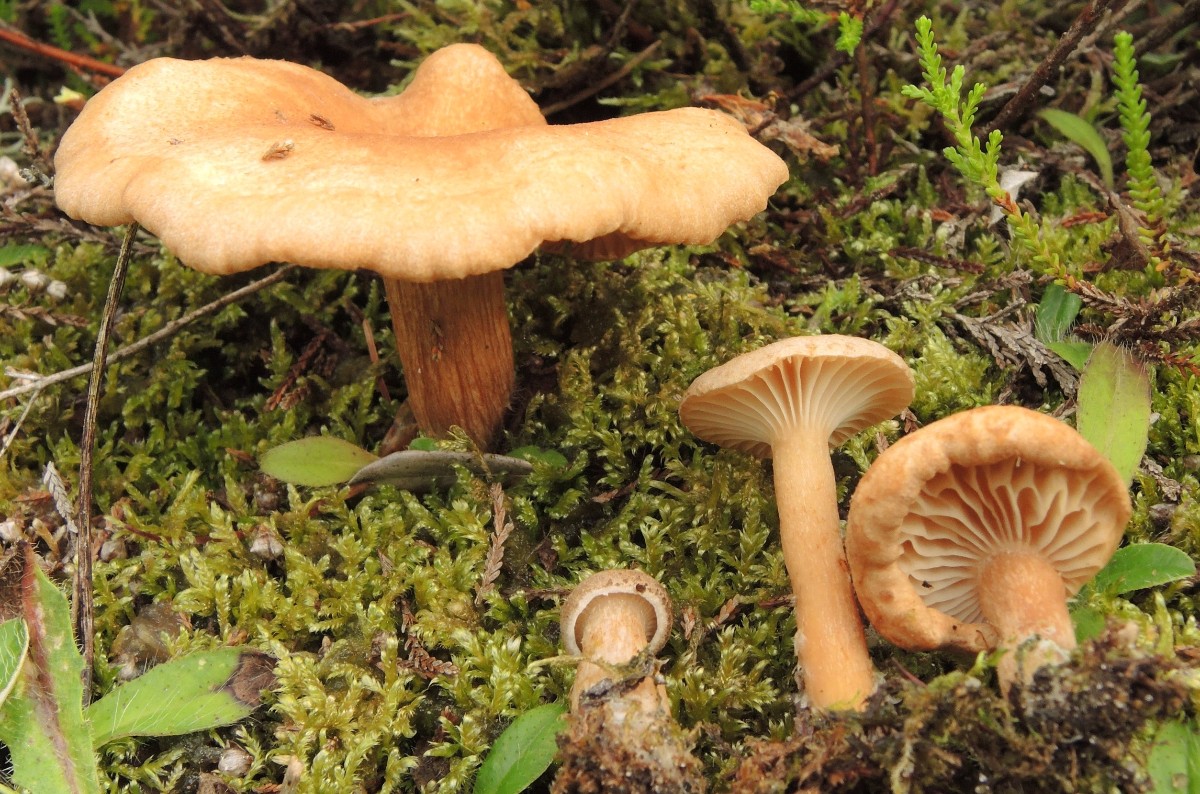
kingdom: Fungi
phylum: Basidiomycota
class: Agaricomycetes
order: Agaricales
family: Tricholomataceae
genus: Clitocybe
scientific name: Clitocybe costata
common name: brunstokket tragthat
